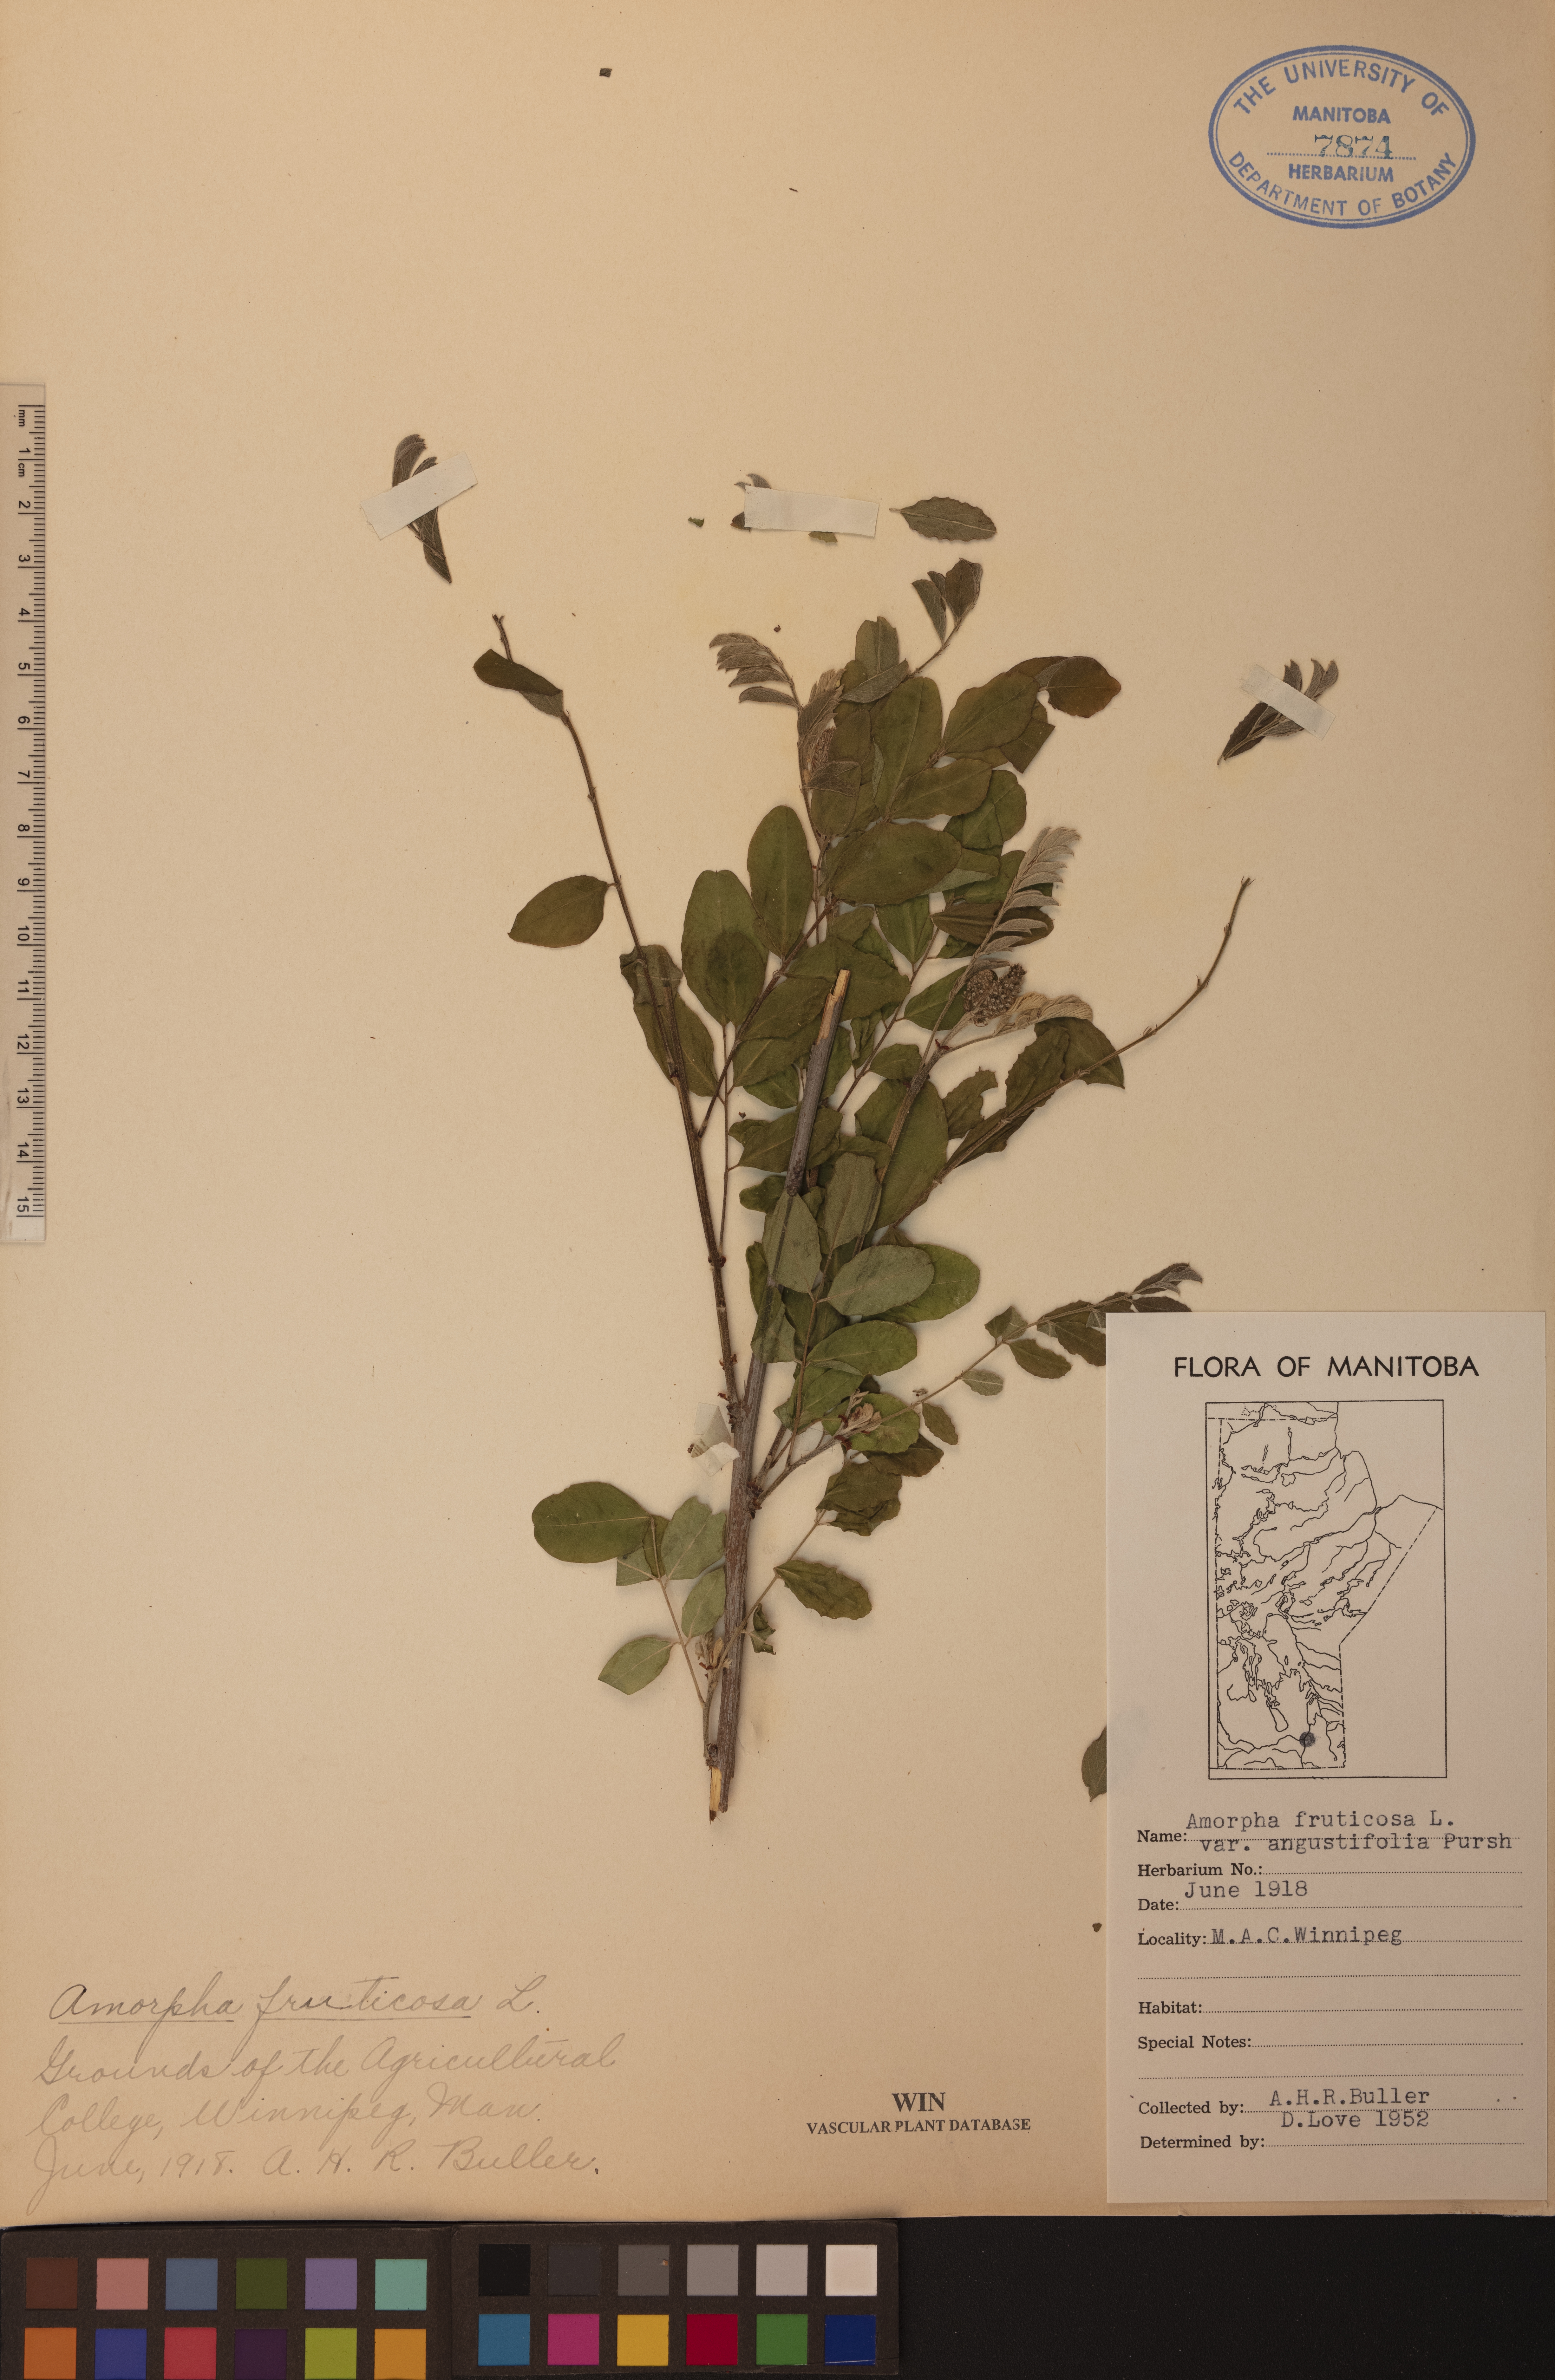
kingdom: Plantae
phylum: Tracheophyta
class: Magnoliopsida
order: Fabales
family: Fabaceae
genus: Amorpha
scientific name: Amorpha fruticosa
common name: False indigo
